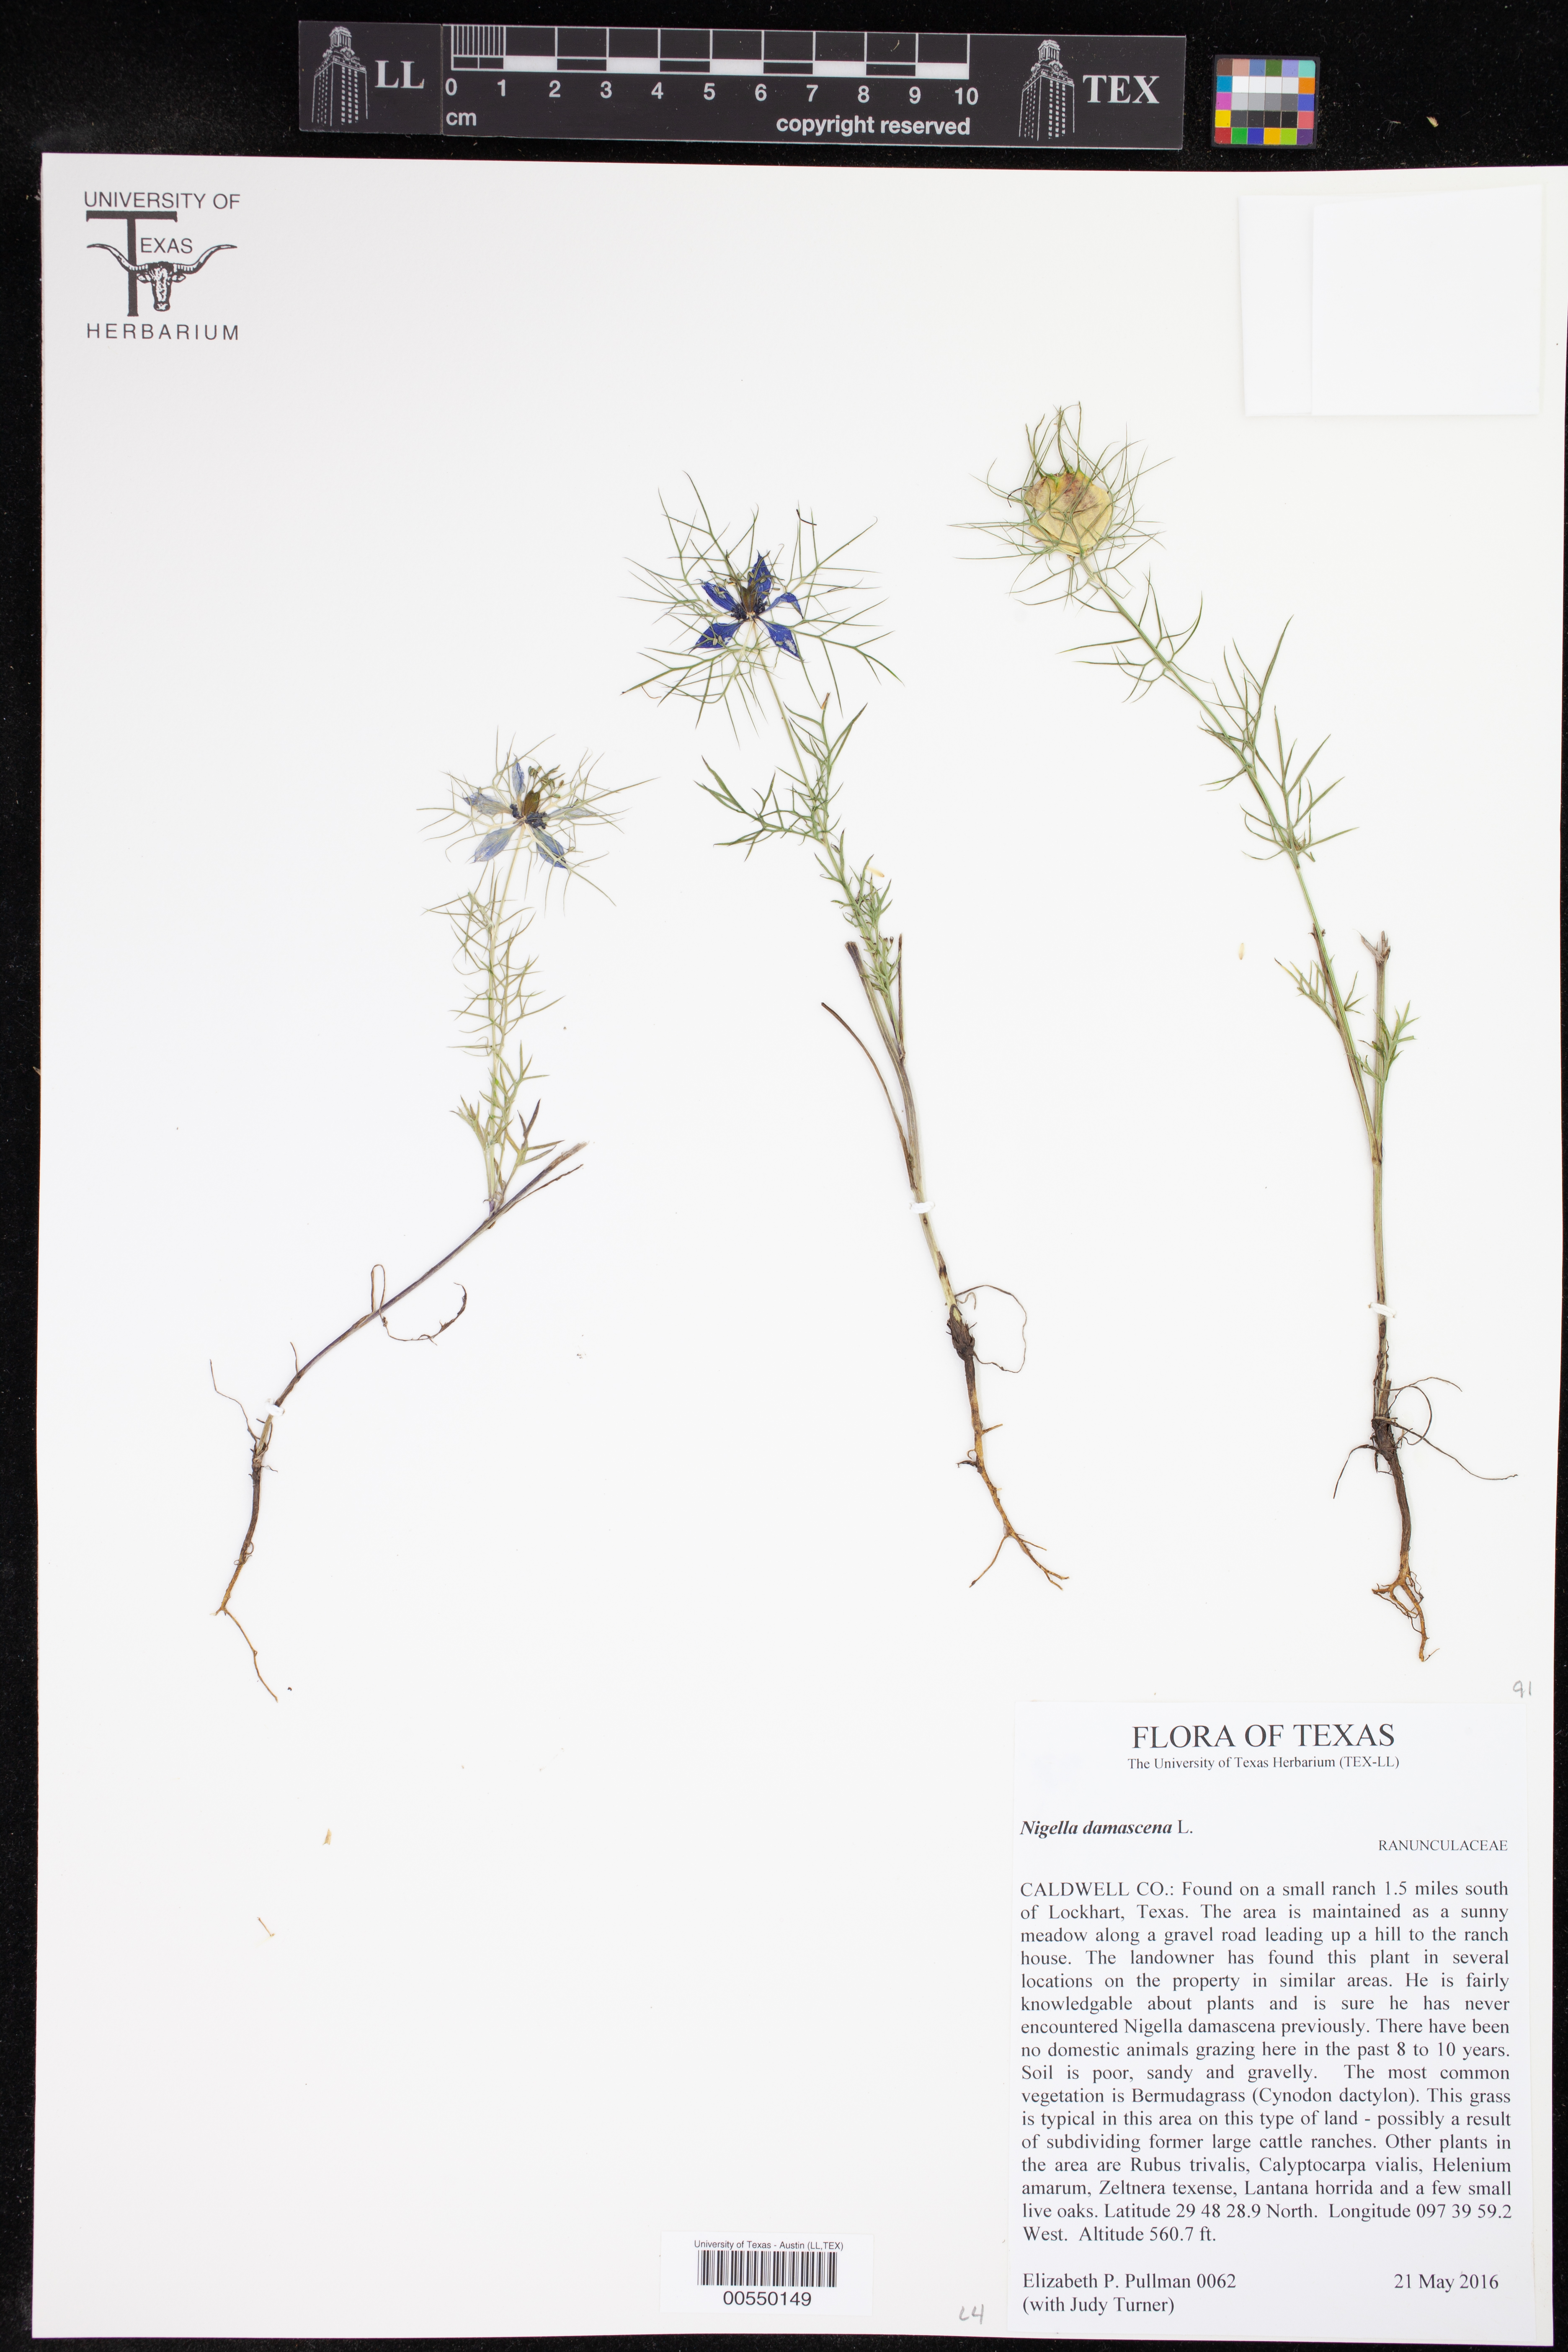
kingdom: Plantae
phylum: Tracheophyta
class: Magnoliopsida
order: Ranunculales
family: Ranunculaceae
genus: Nigella
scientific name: Nigella damascena
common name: Love-in-a-mist
